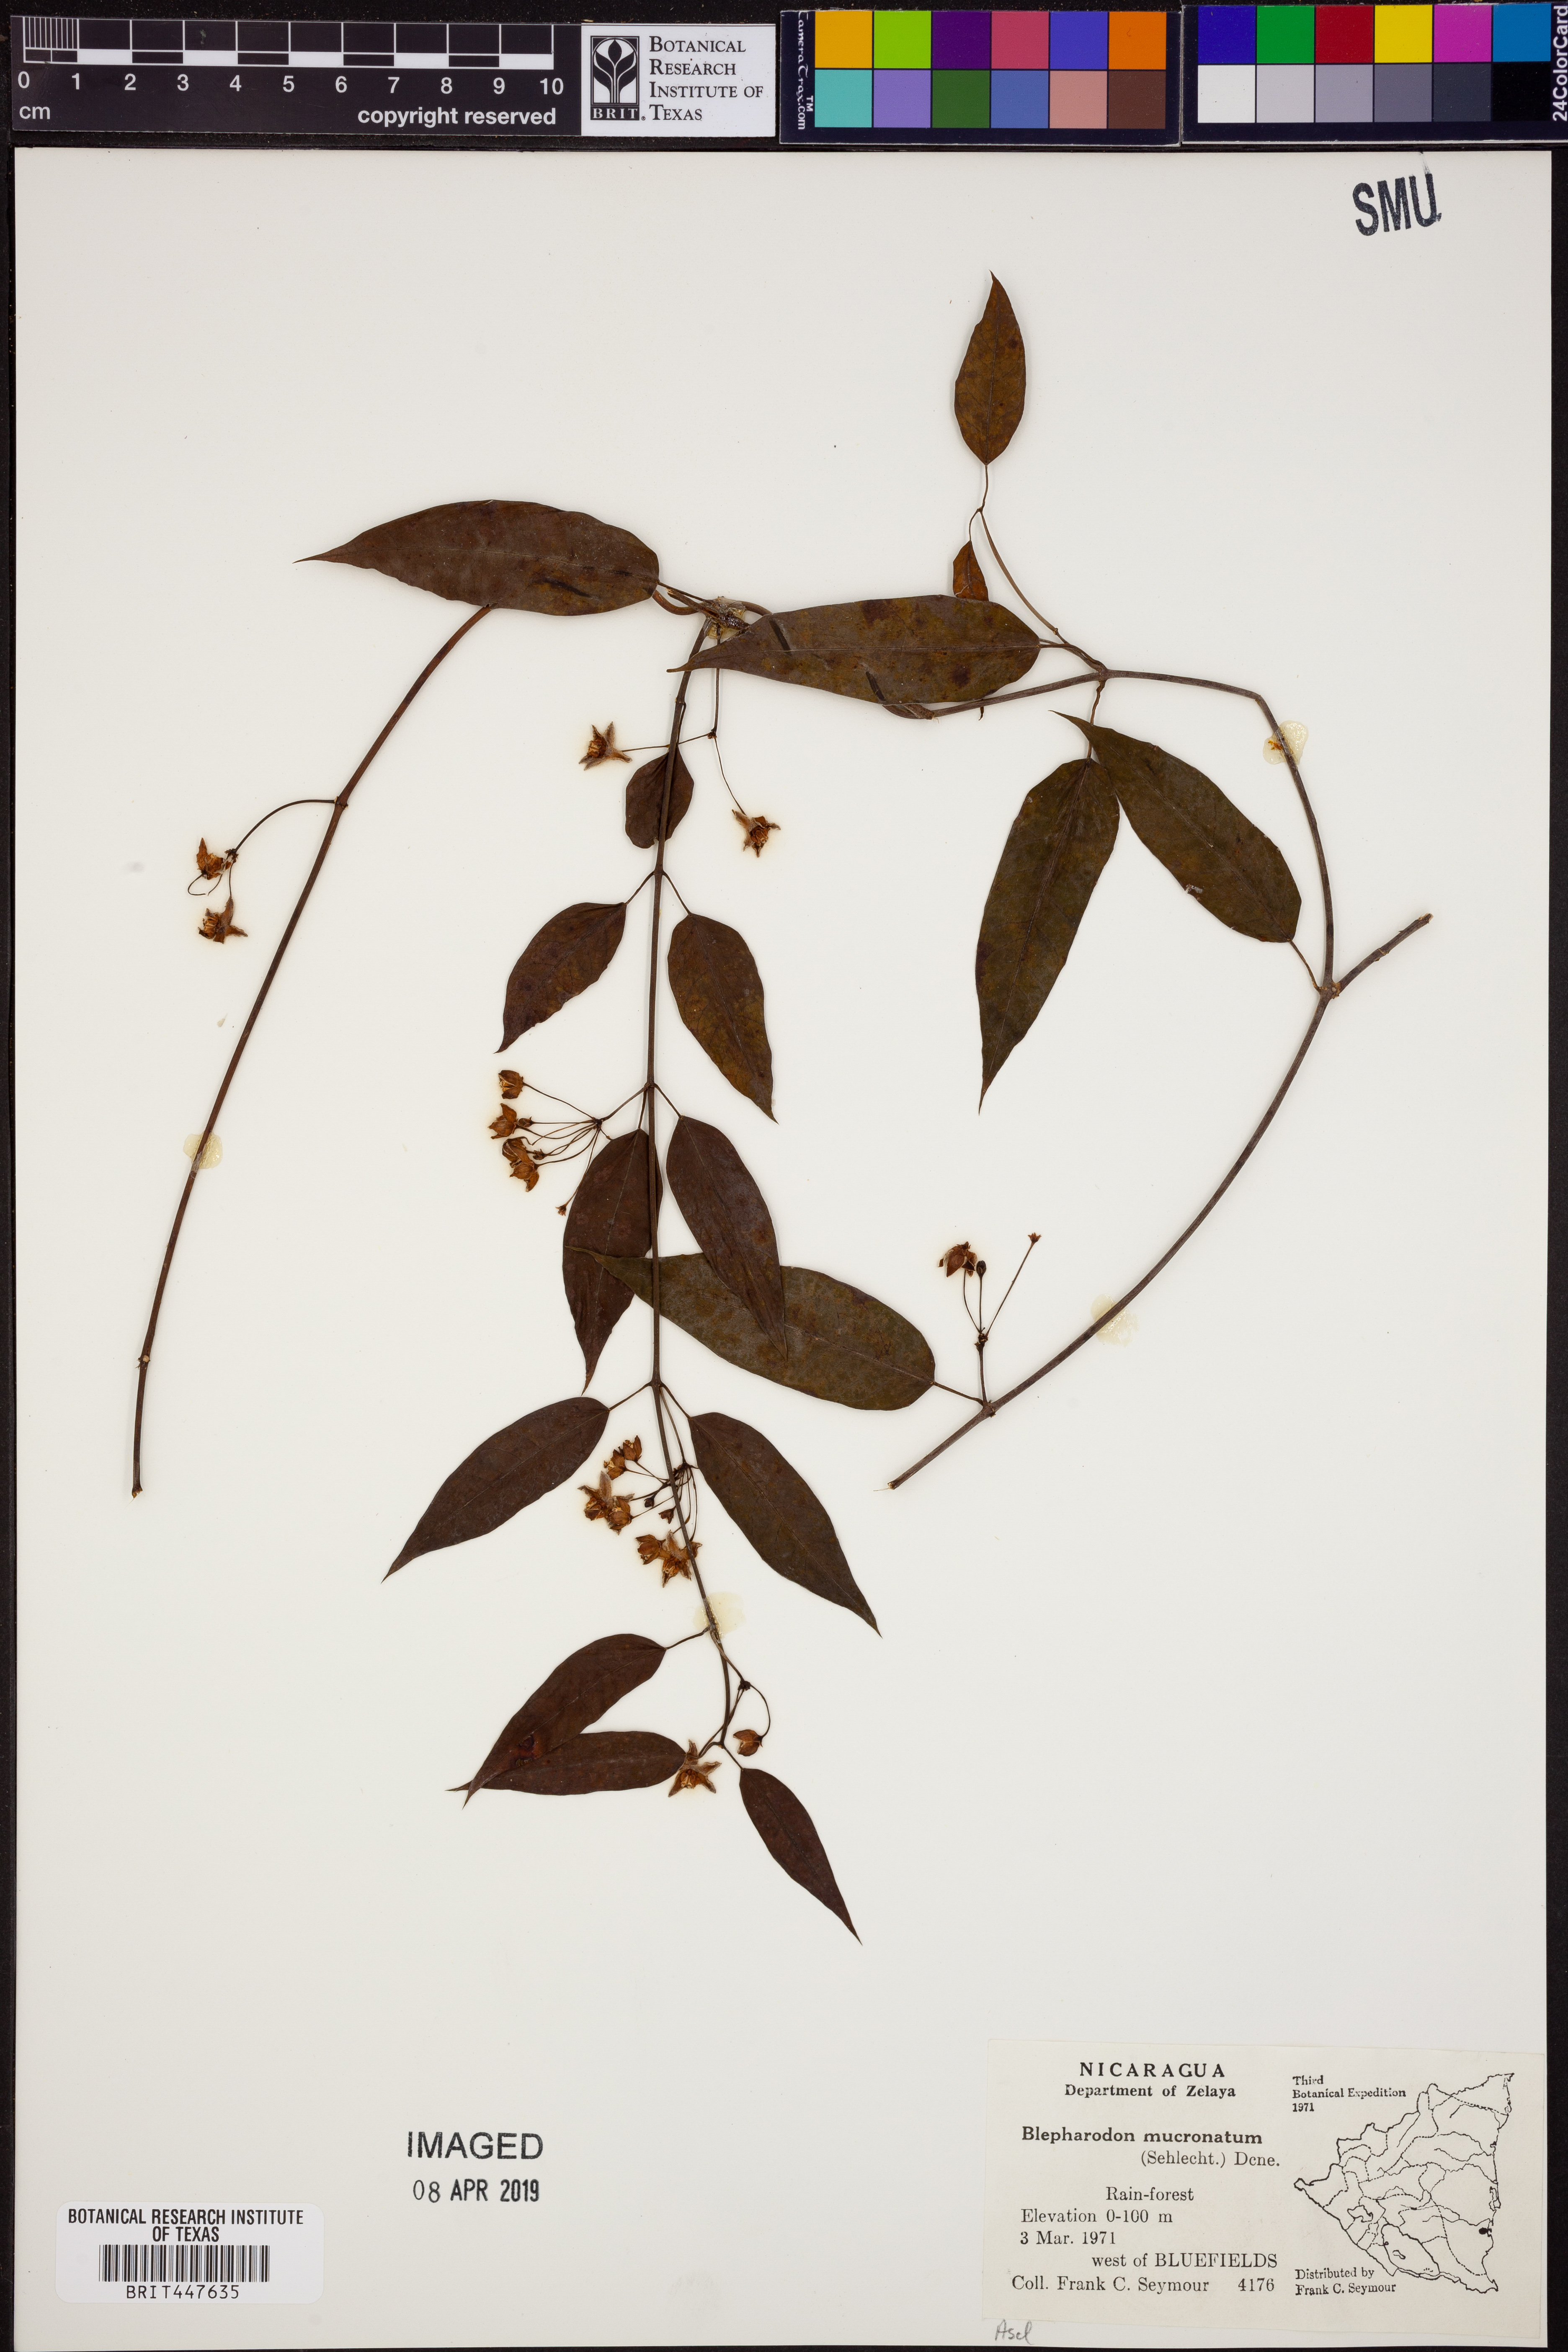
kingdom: Plantae
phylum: Tracheophyta
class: Magnoliopsida
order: Gentianales
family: Apocynaceae
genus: Vailia
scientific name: Vailia anomala
